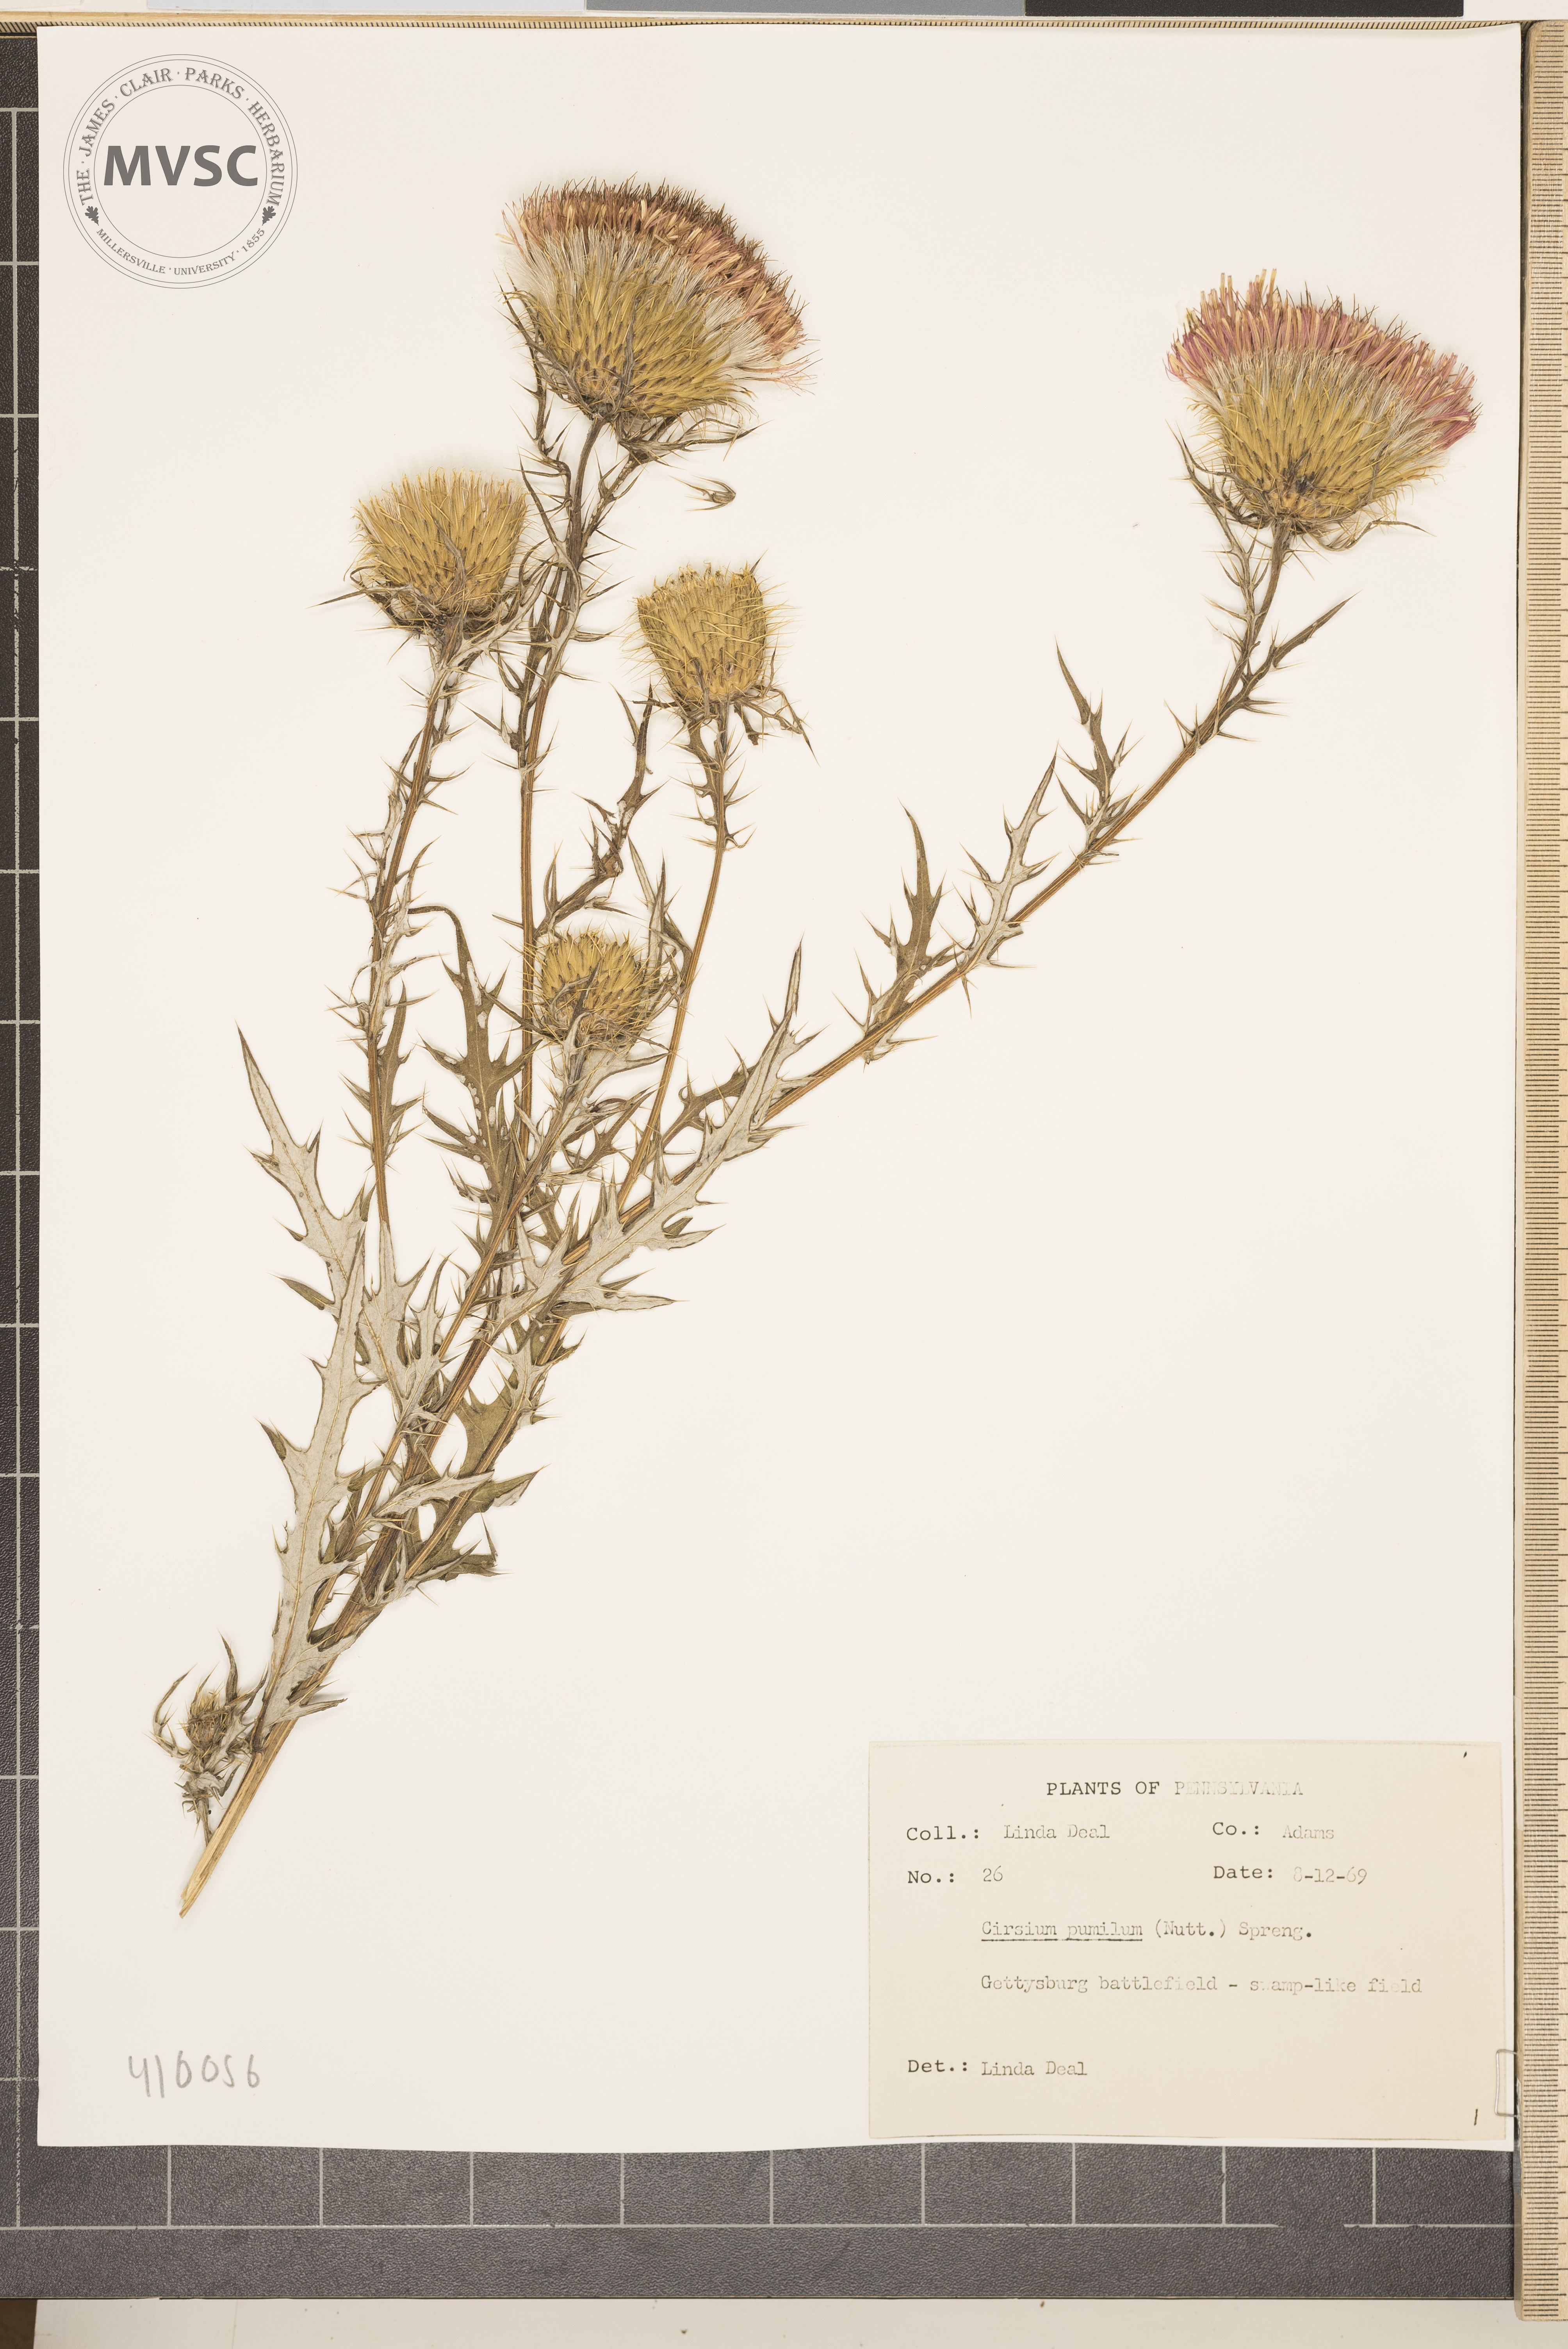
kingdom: Plantae
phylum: Tracheophyta
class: Magnoliopsida
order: Asterales
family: Asteraceae
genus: Cirsium
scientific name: Cirsium discolor
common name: Field thistle
